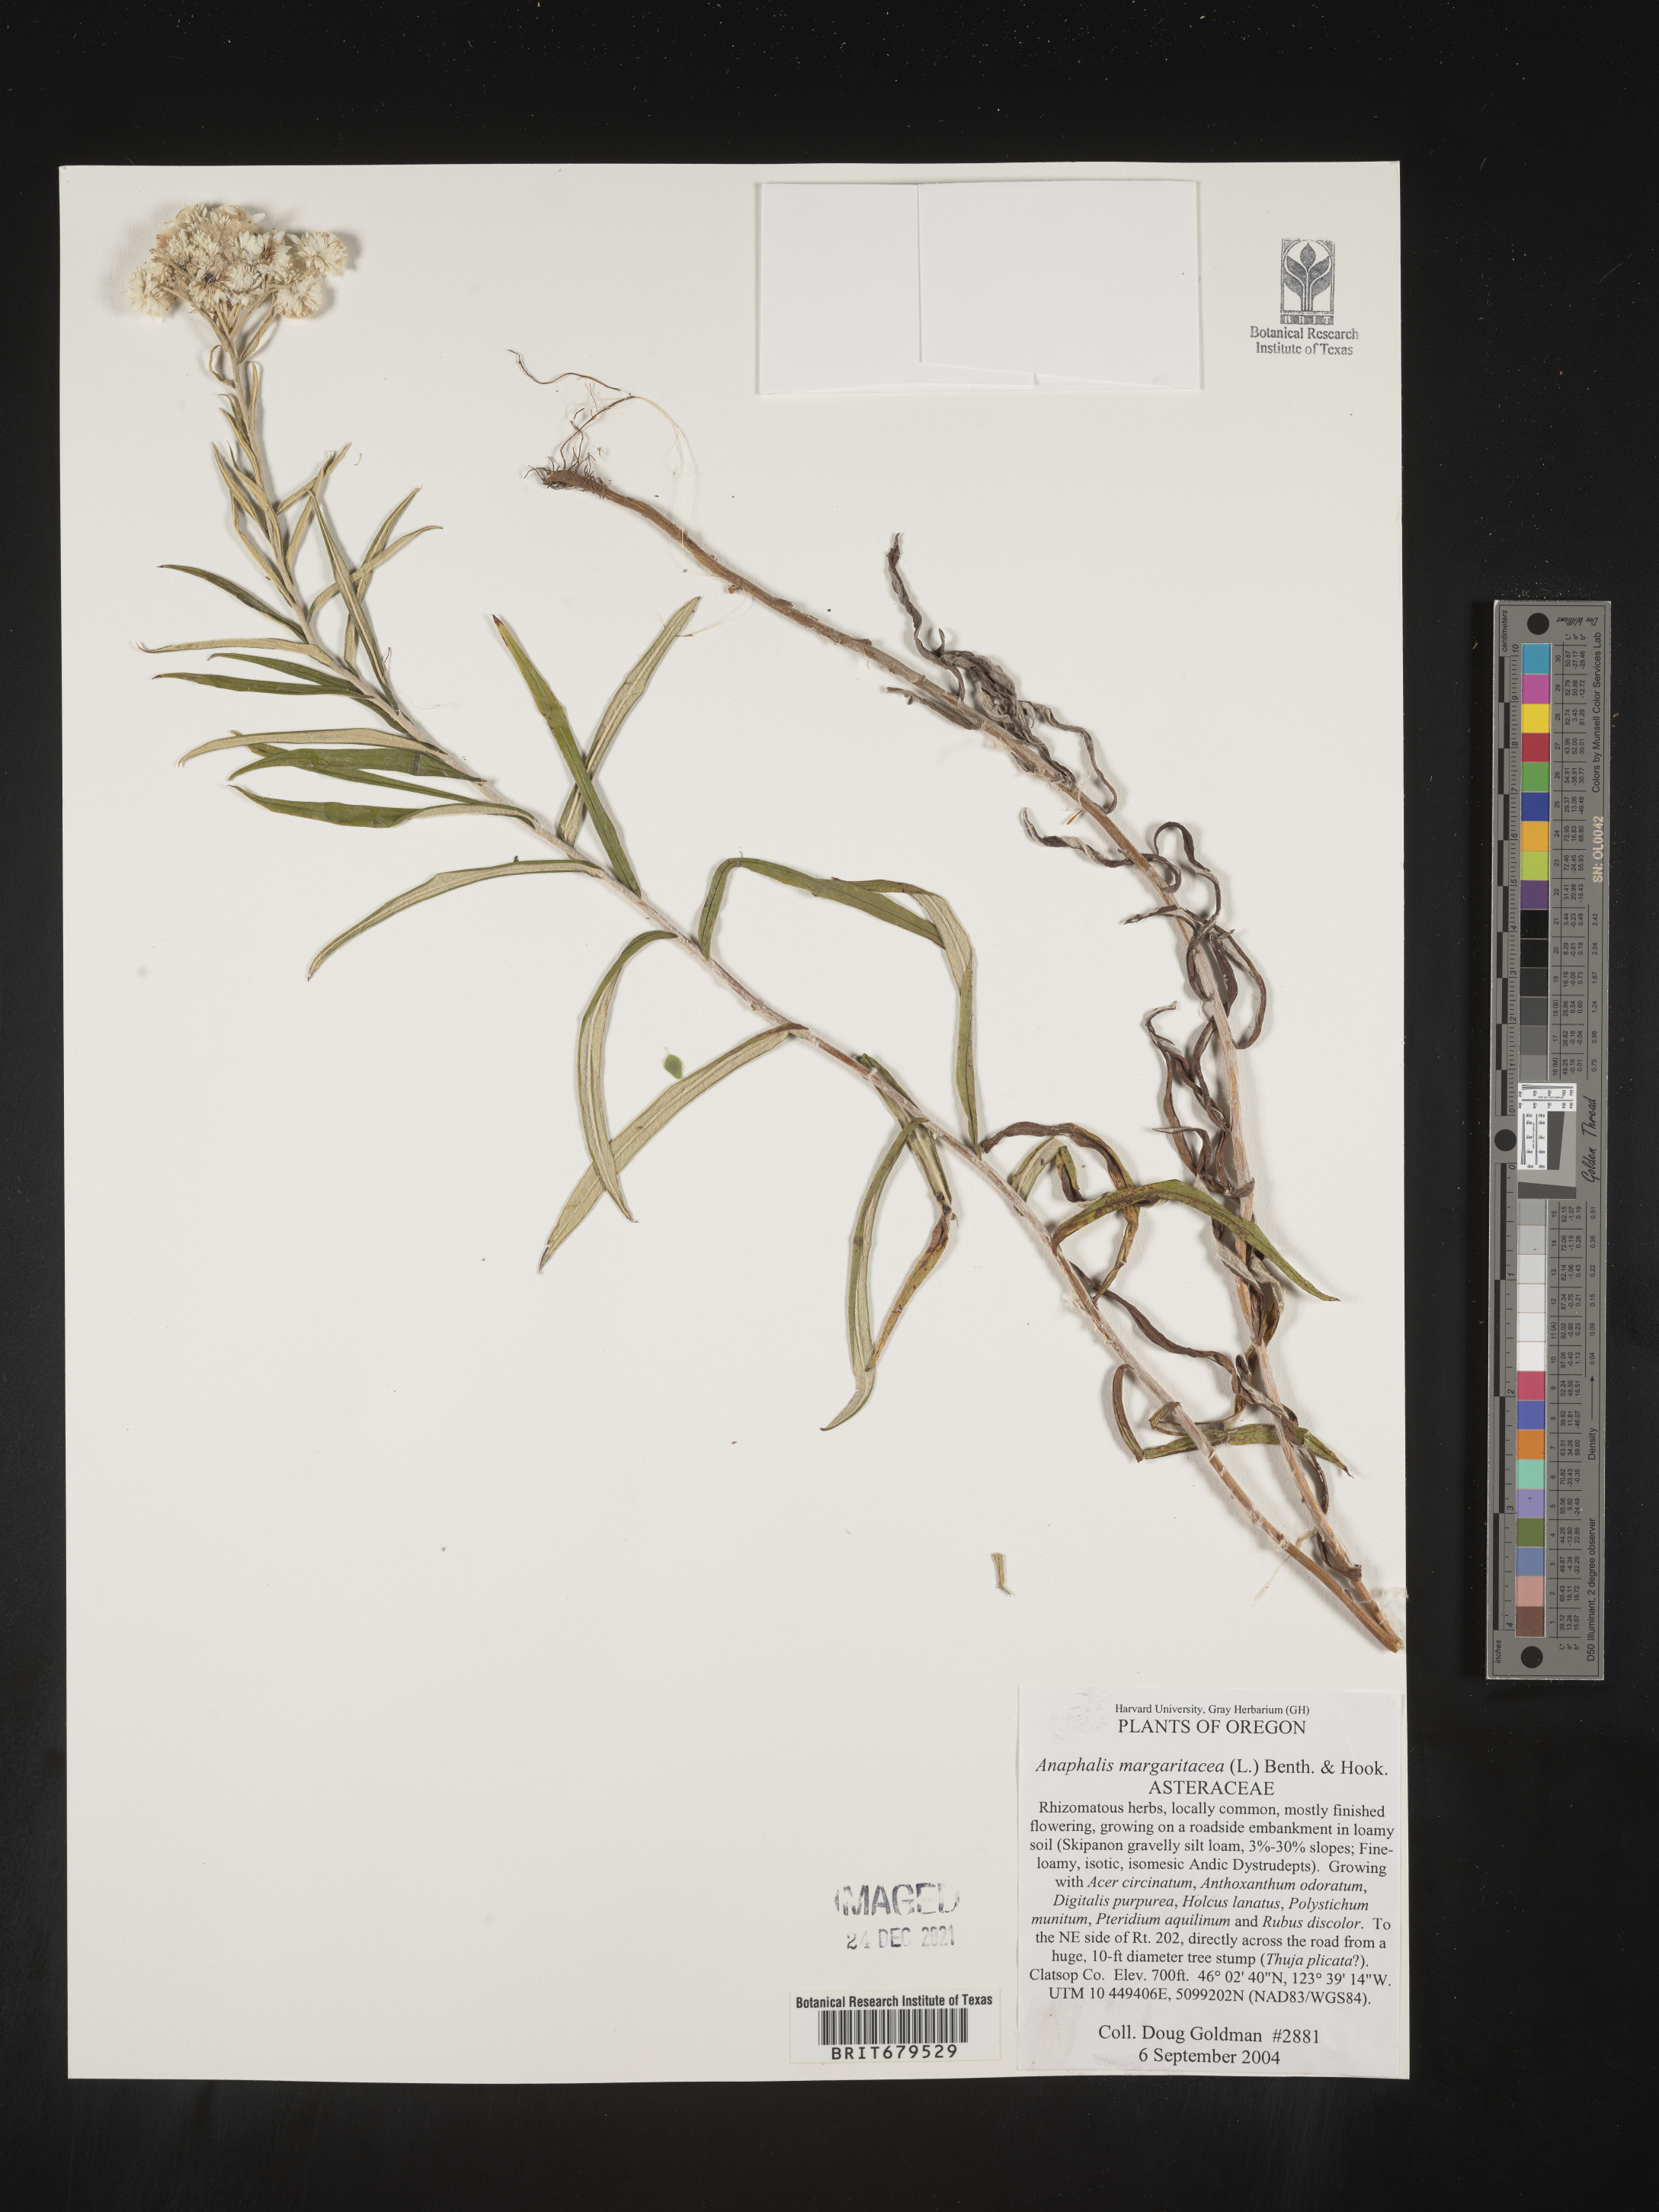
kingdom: Plantae
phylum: Tracheophyta
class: Magnoliopsida
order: Asterales
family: Asteraceae
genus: Anaphalis
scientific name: Anaphalis margaritacea
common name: Pearly everlasting
